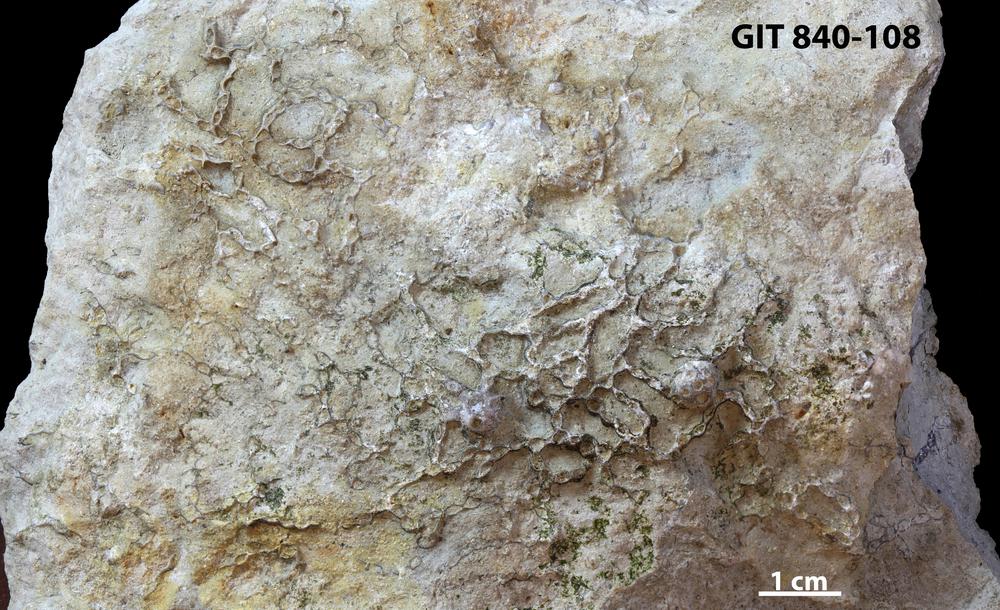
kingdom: Animalia
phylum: Cnidaria
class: Anthozoa
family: Cateniporidae
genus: Catenipora
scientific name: Catenipora
